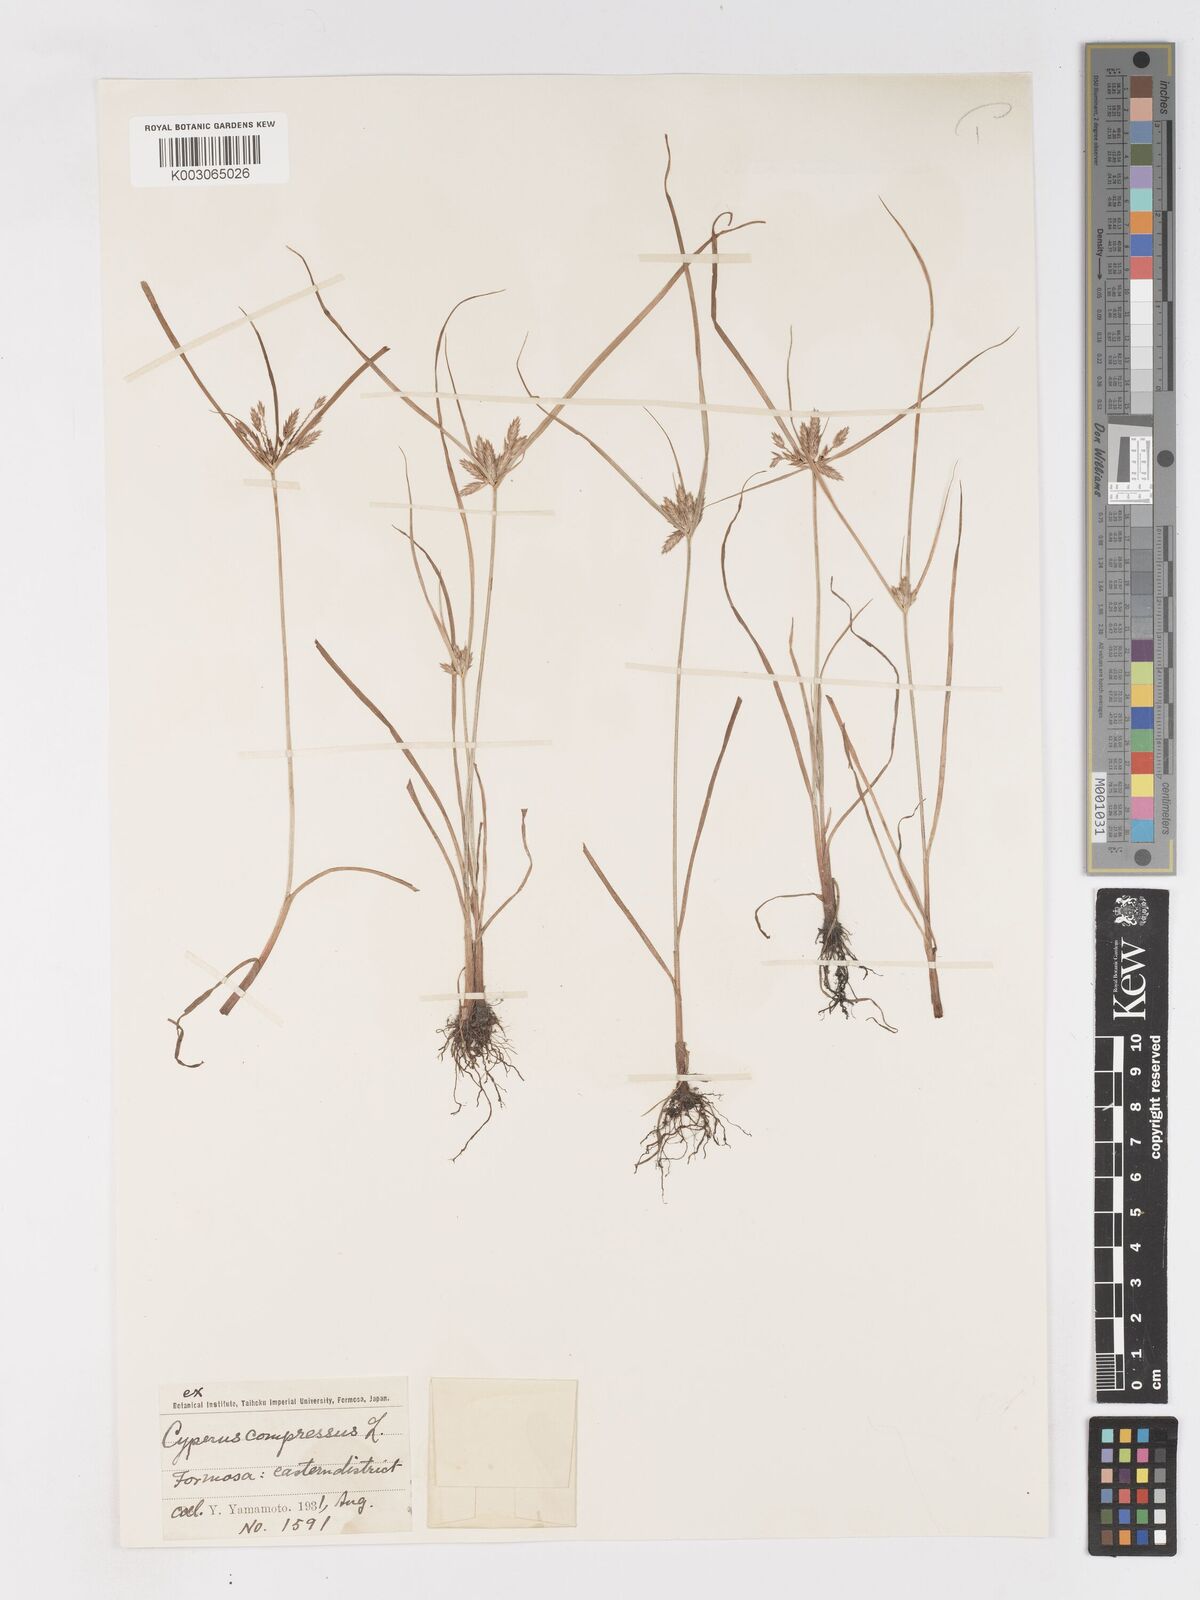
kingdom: Plantae
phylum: Tracheophyta
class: Liliopsida
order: Poales
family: Cyperaceae
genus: Cyperus
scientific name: Cyperus compressus
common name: Poorland flatsedge
